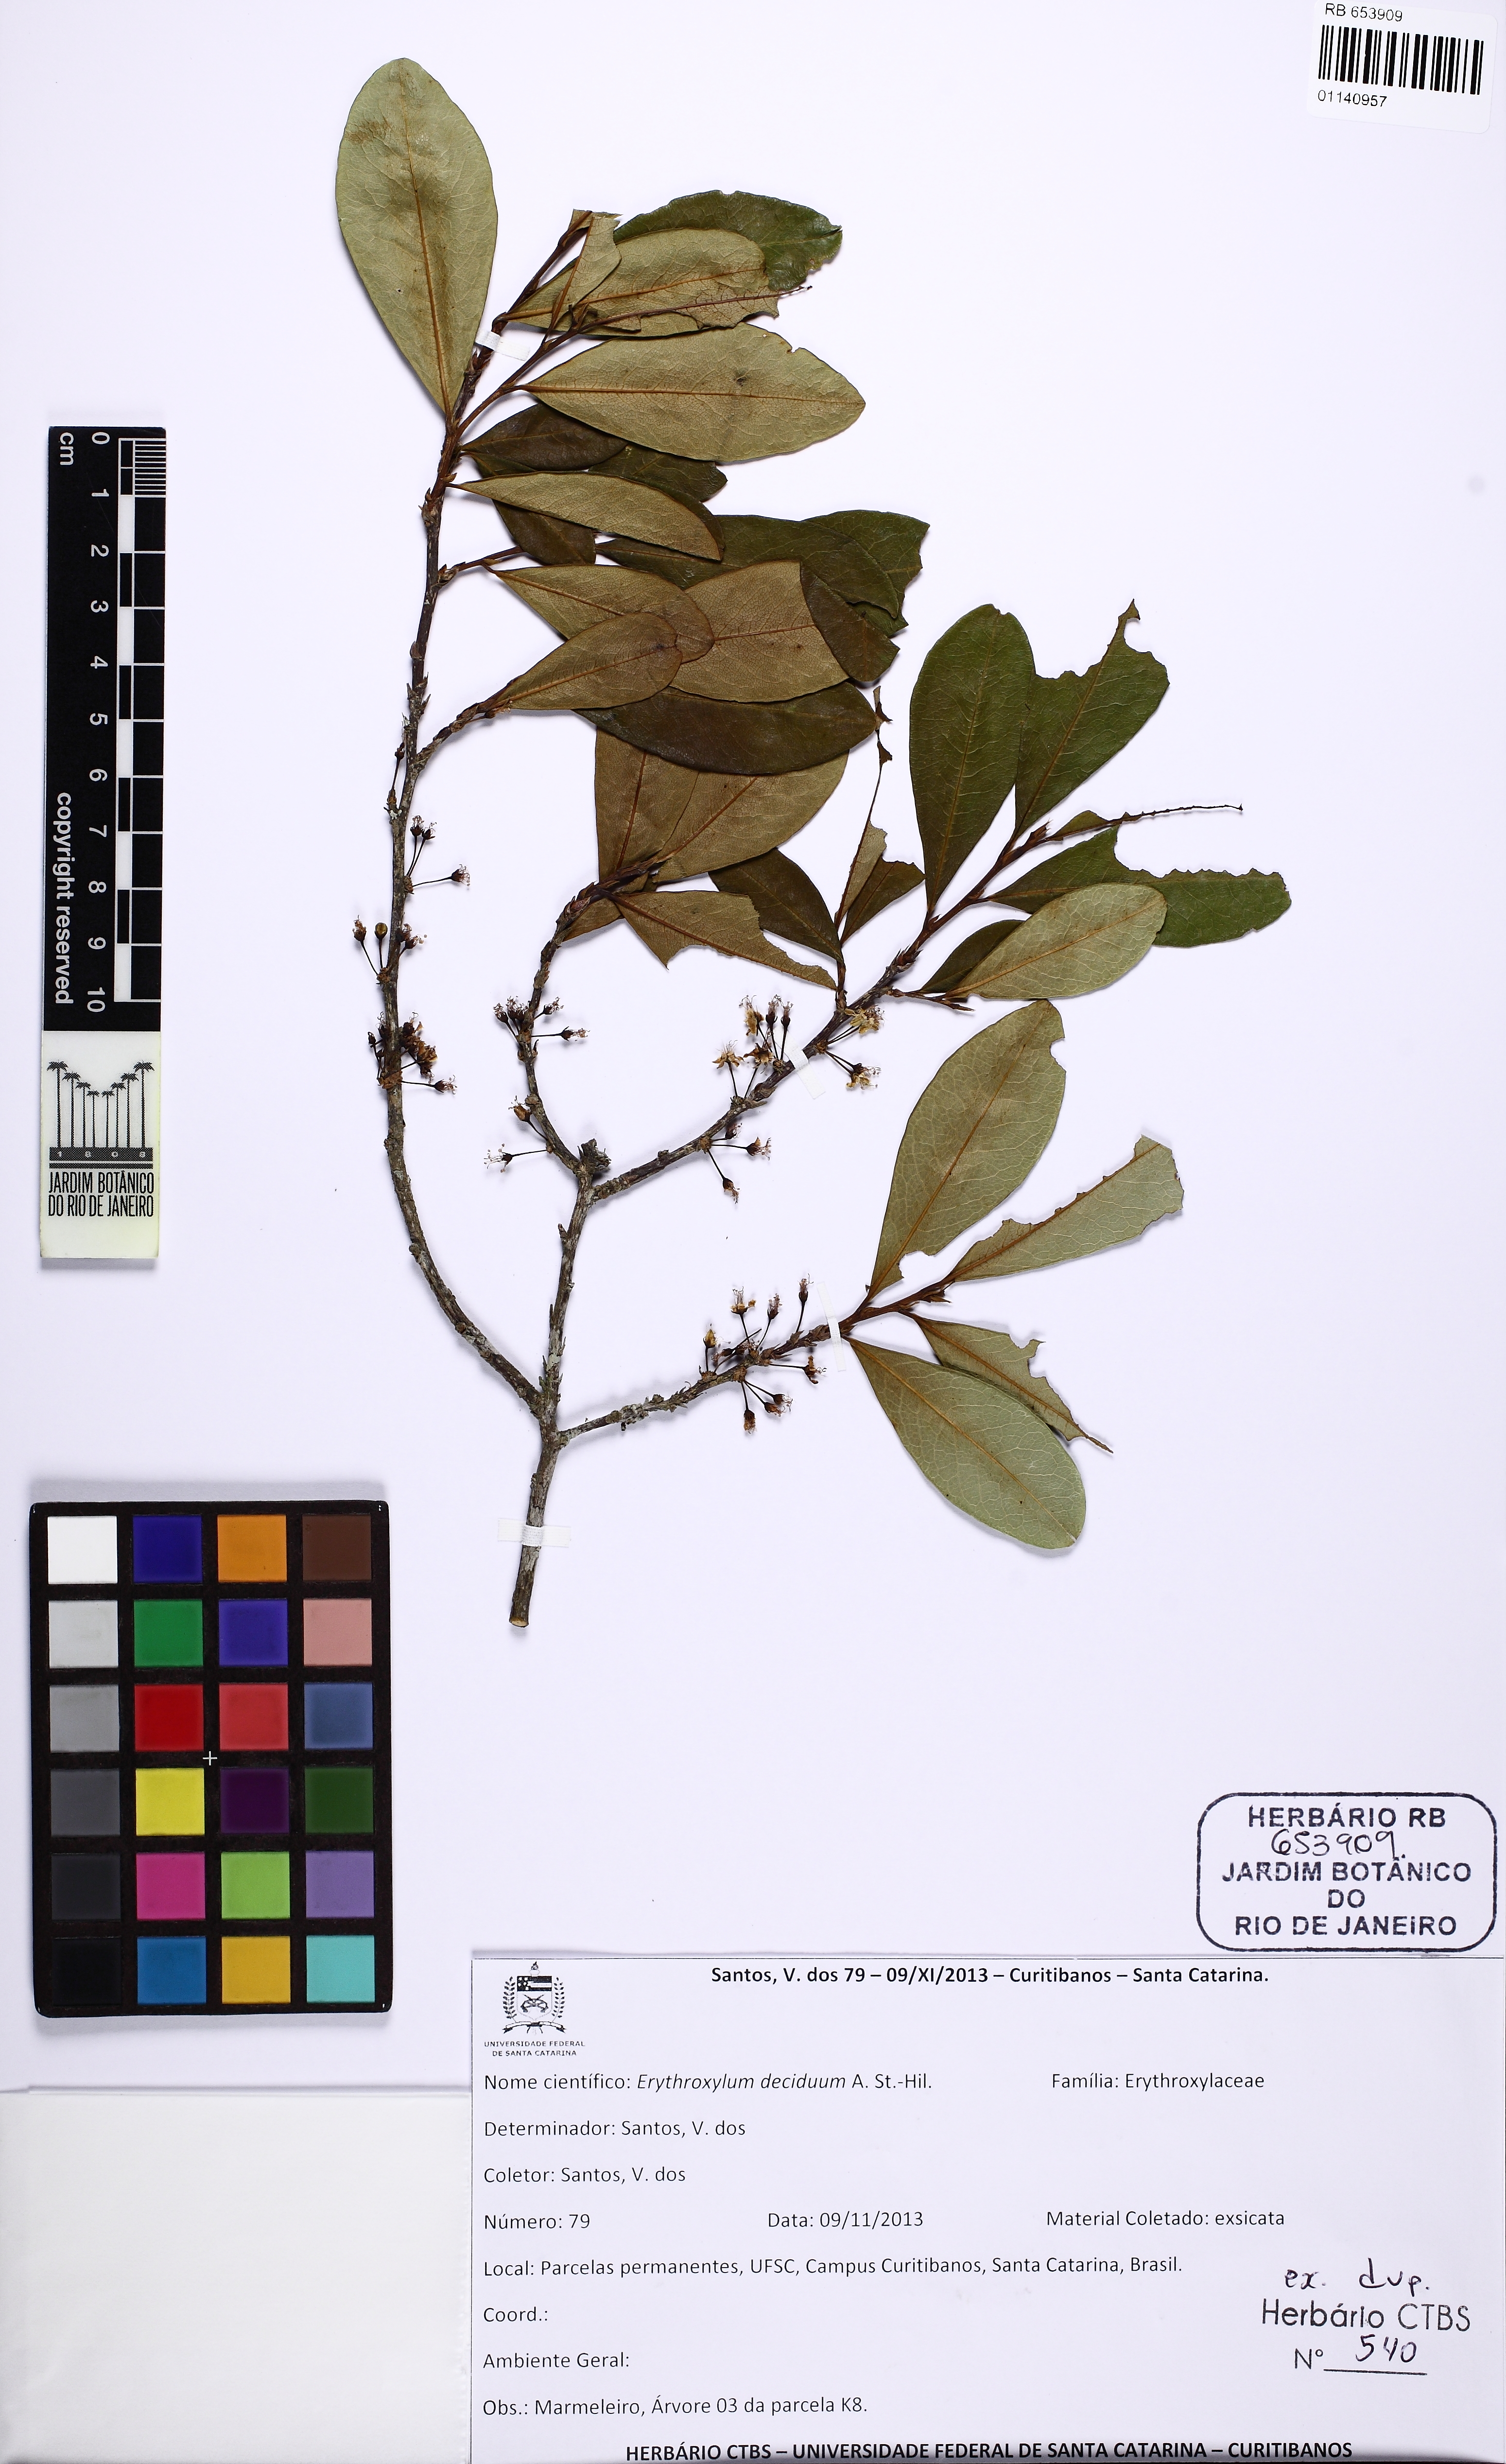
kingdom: Plantae
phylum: Tracheophyta
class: Magnoliopsida
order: Malpighiales
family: Erythroxylaceae
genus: Erythroxylum
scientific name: Erythroxylum deciduum
